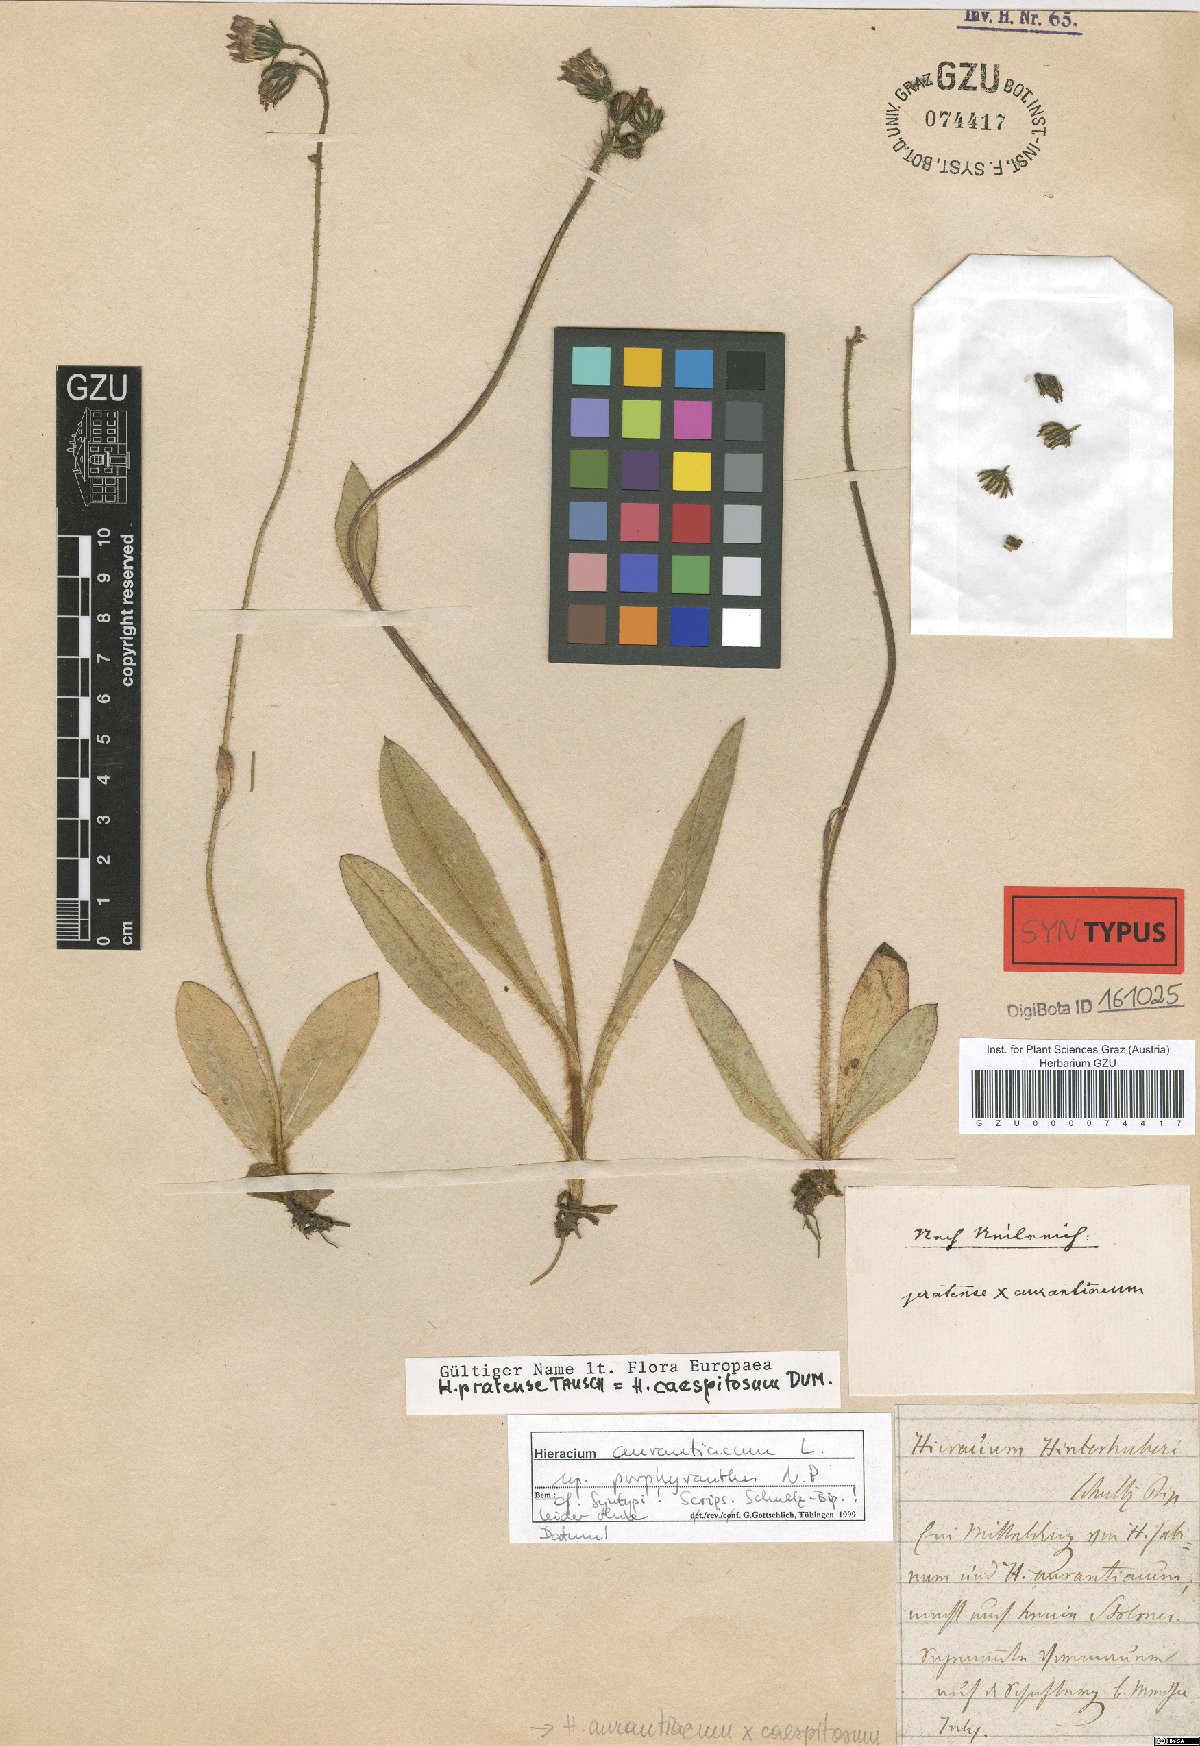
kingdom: Plantae
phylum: Tracheophyta
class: Magnoliopsida
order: Asterales
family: Asteraceae
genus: Pilosella
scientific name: Pilosella aurantiaca
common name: Fox-and-cubs
